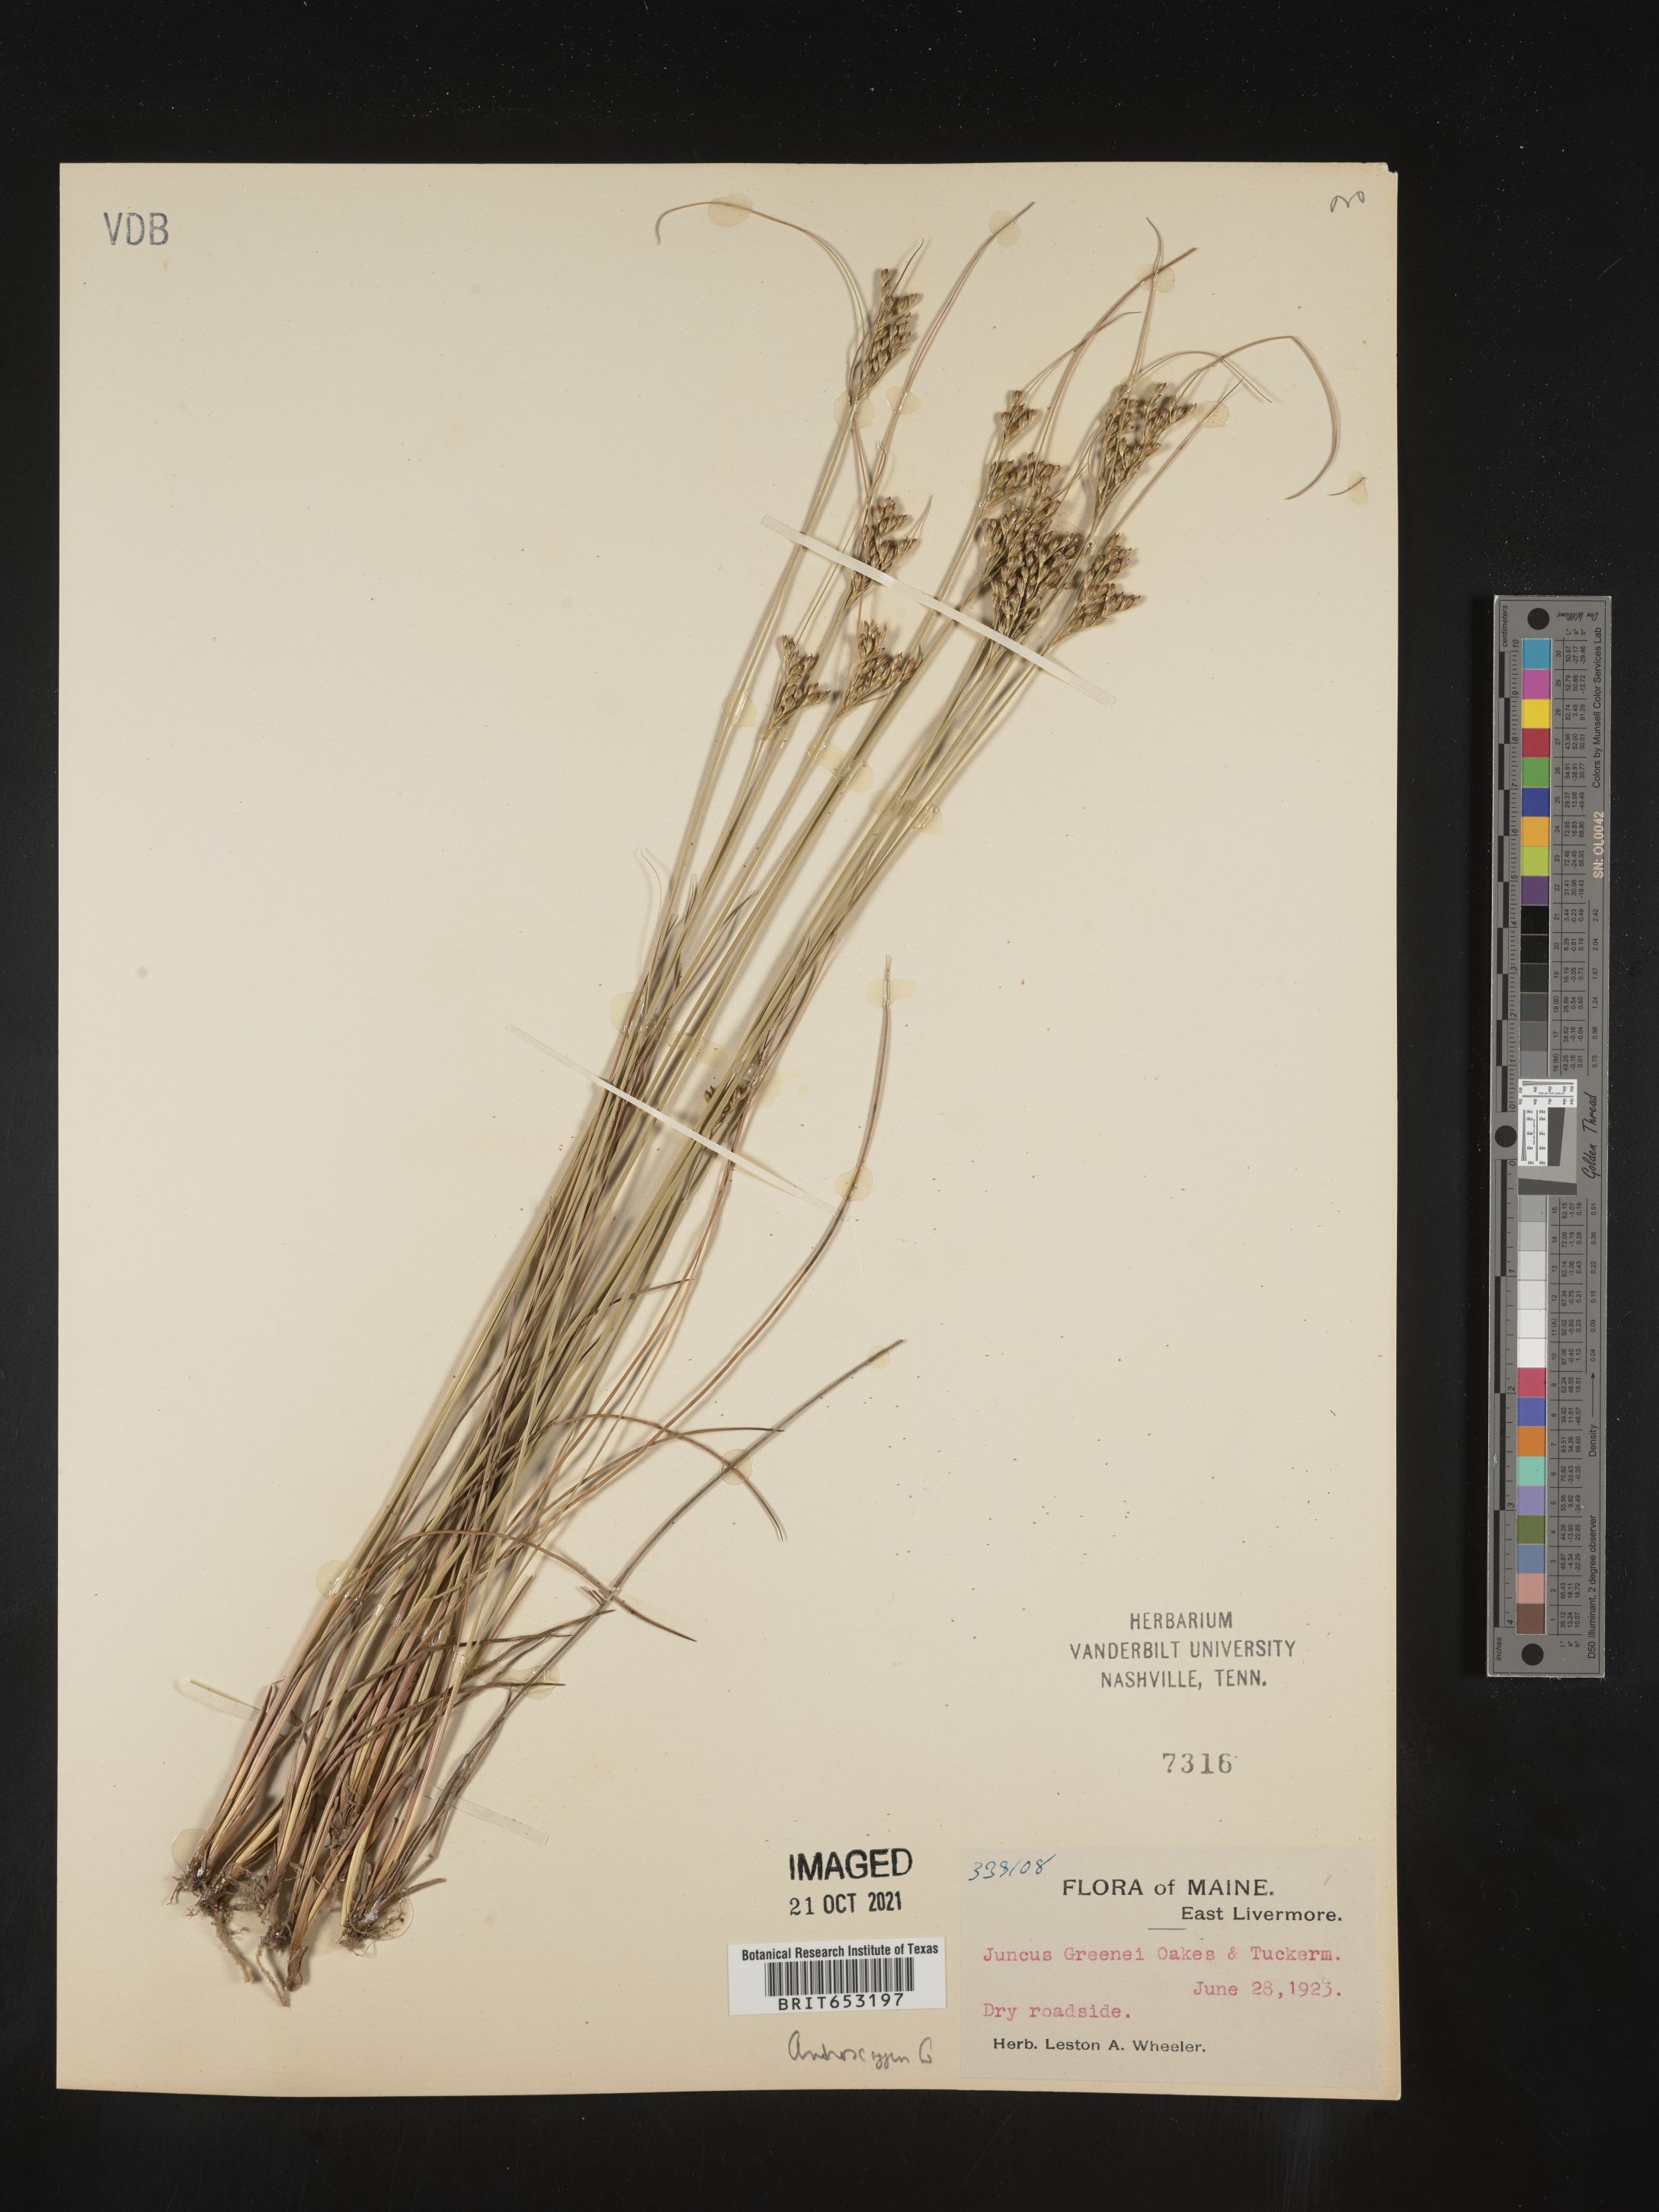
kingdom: Plantae
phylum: Tracheophyta
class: Liliopsida
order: Poales
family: Juncaceae
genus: Juncus
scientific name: Juncus greenei
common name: Greene's rush
